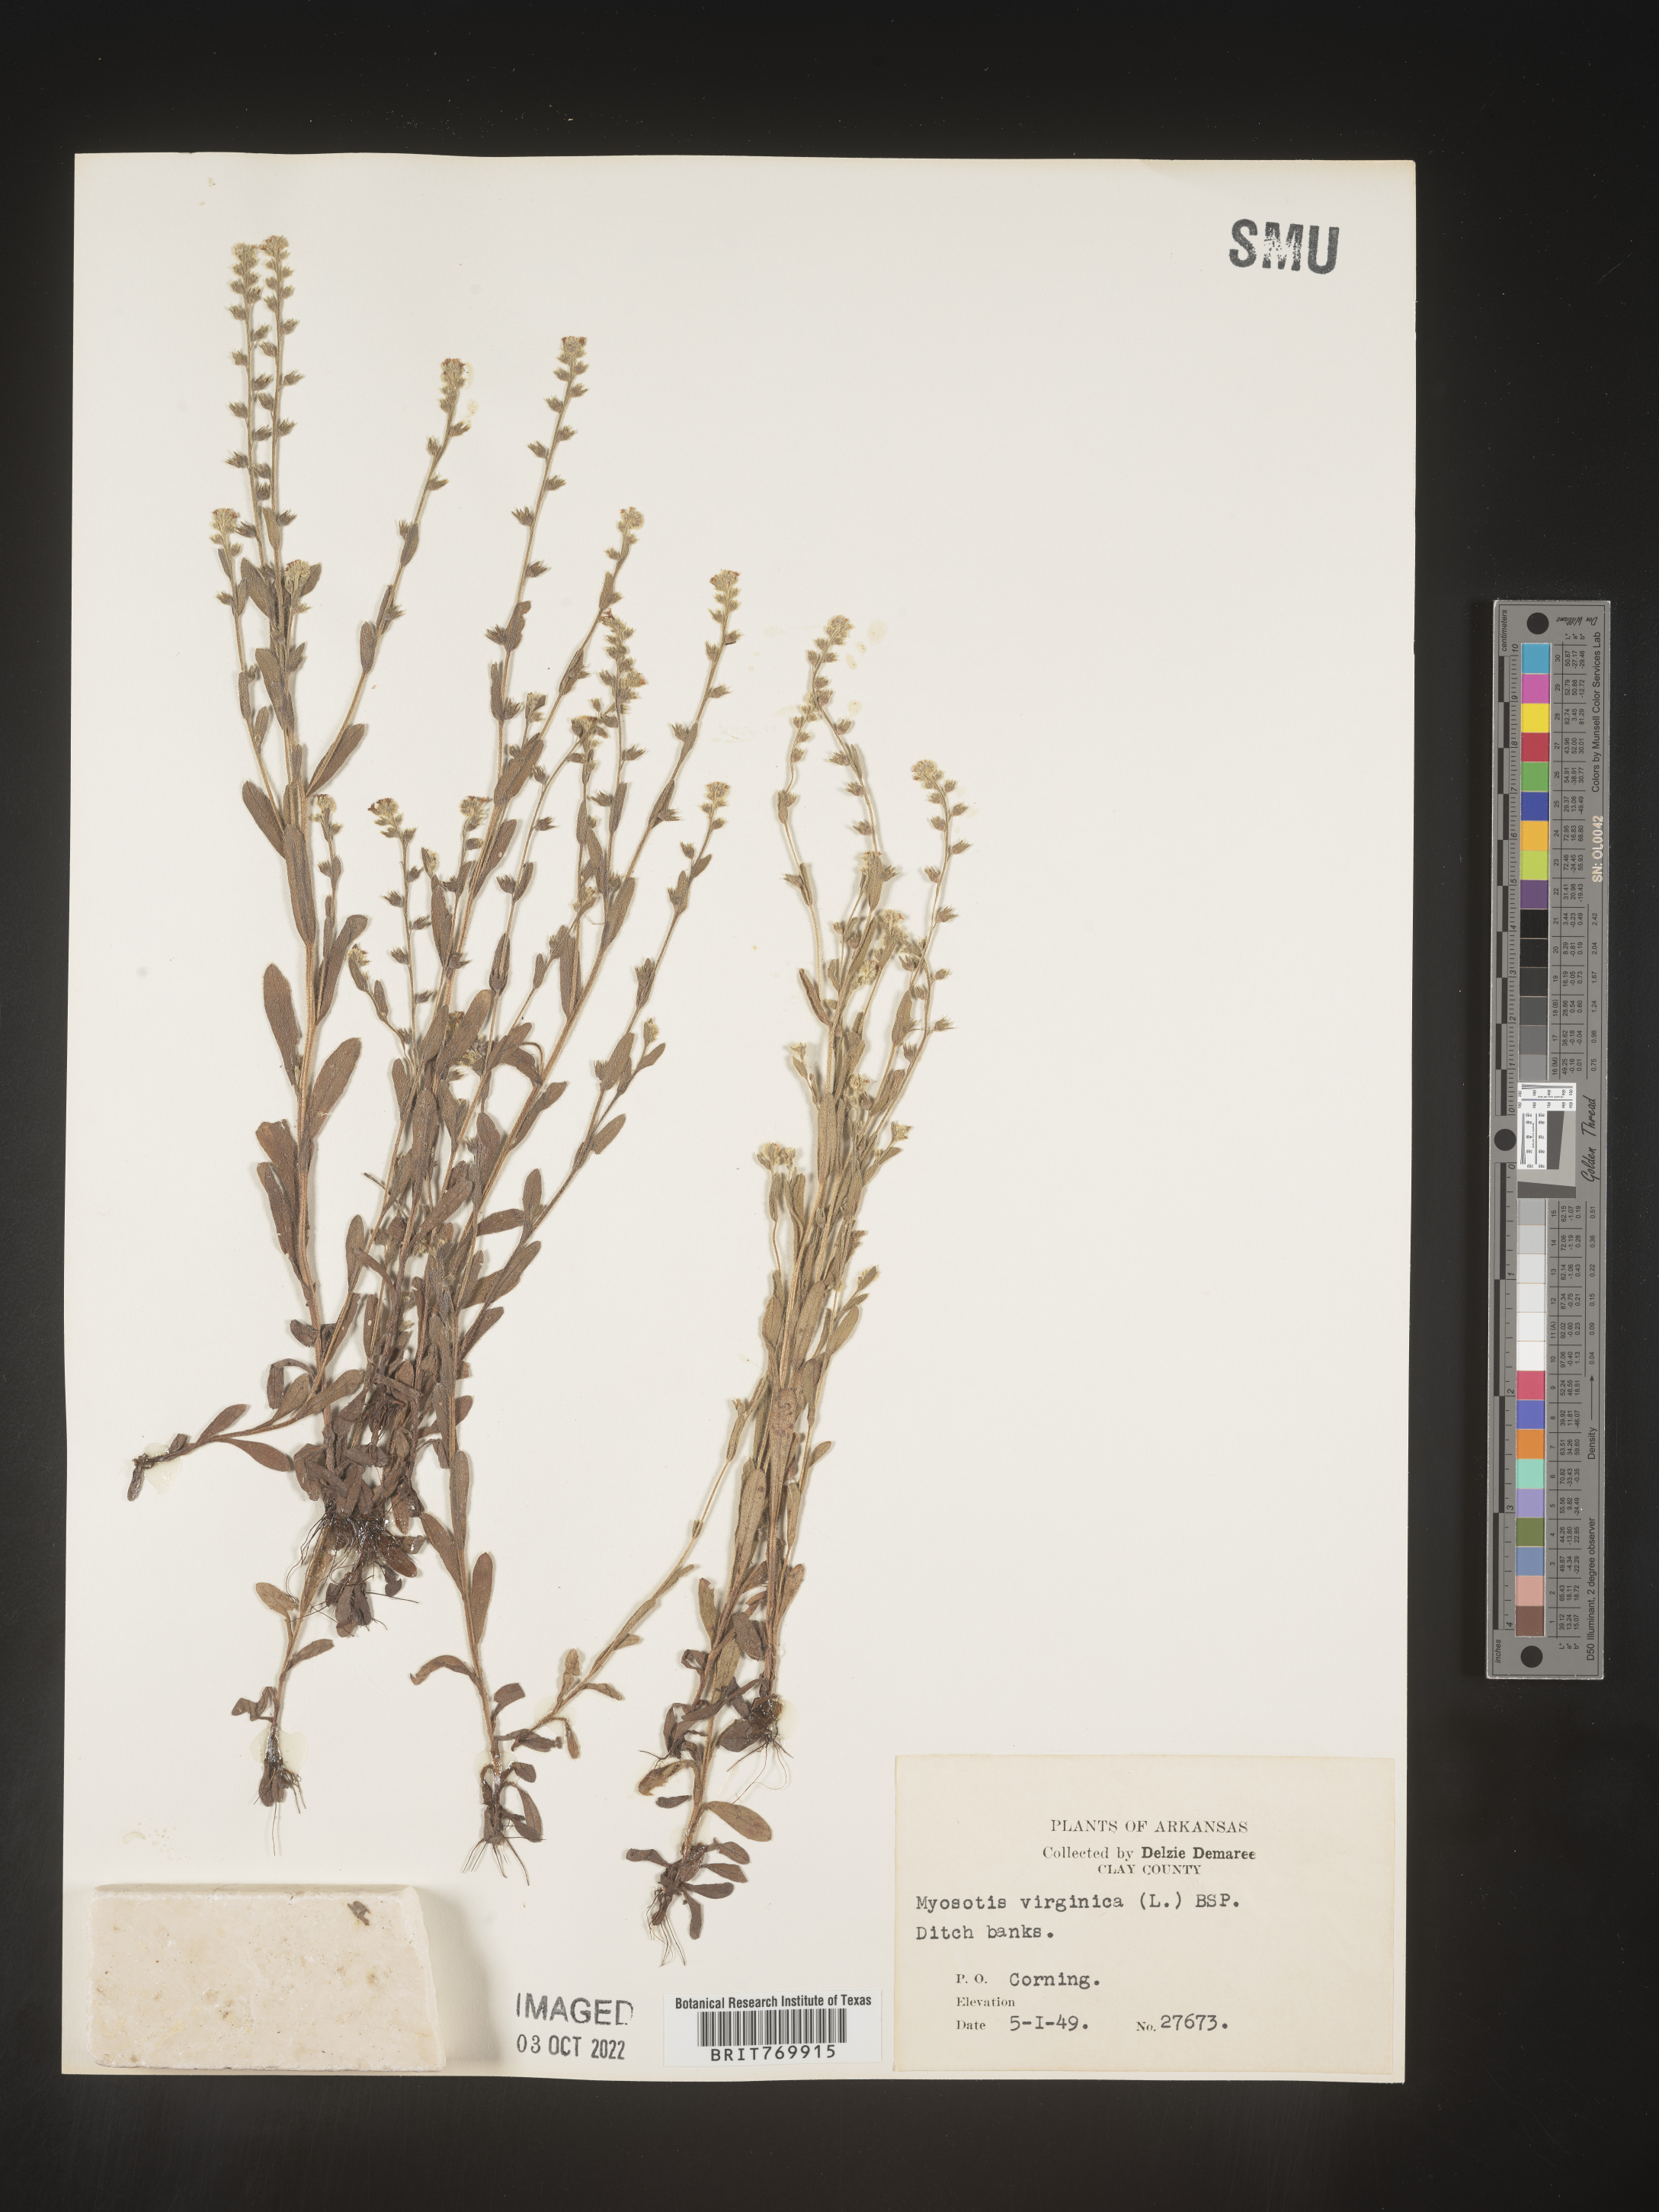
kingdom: Plantae
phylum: Tracheophyta
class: Magnoliopsida
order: Boraginales
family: Boraginaceae
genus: Myosotis
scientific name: Myosotis verna
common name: Early forget-me-not
